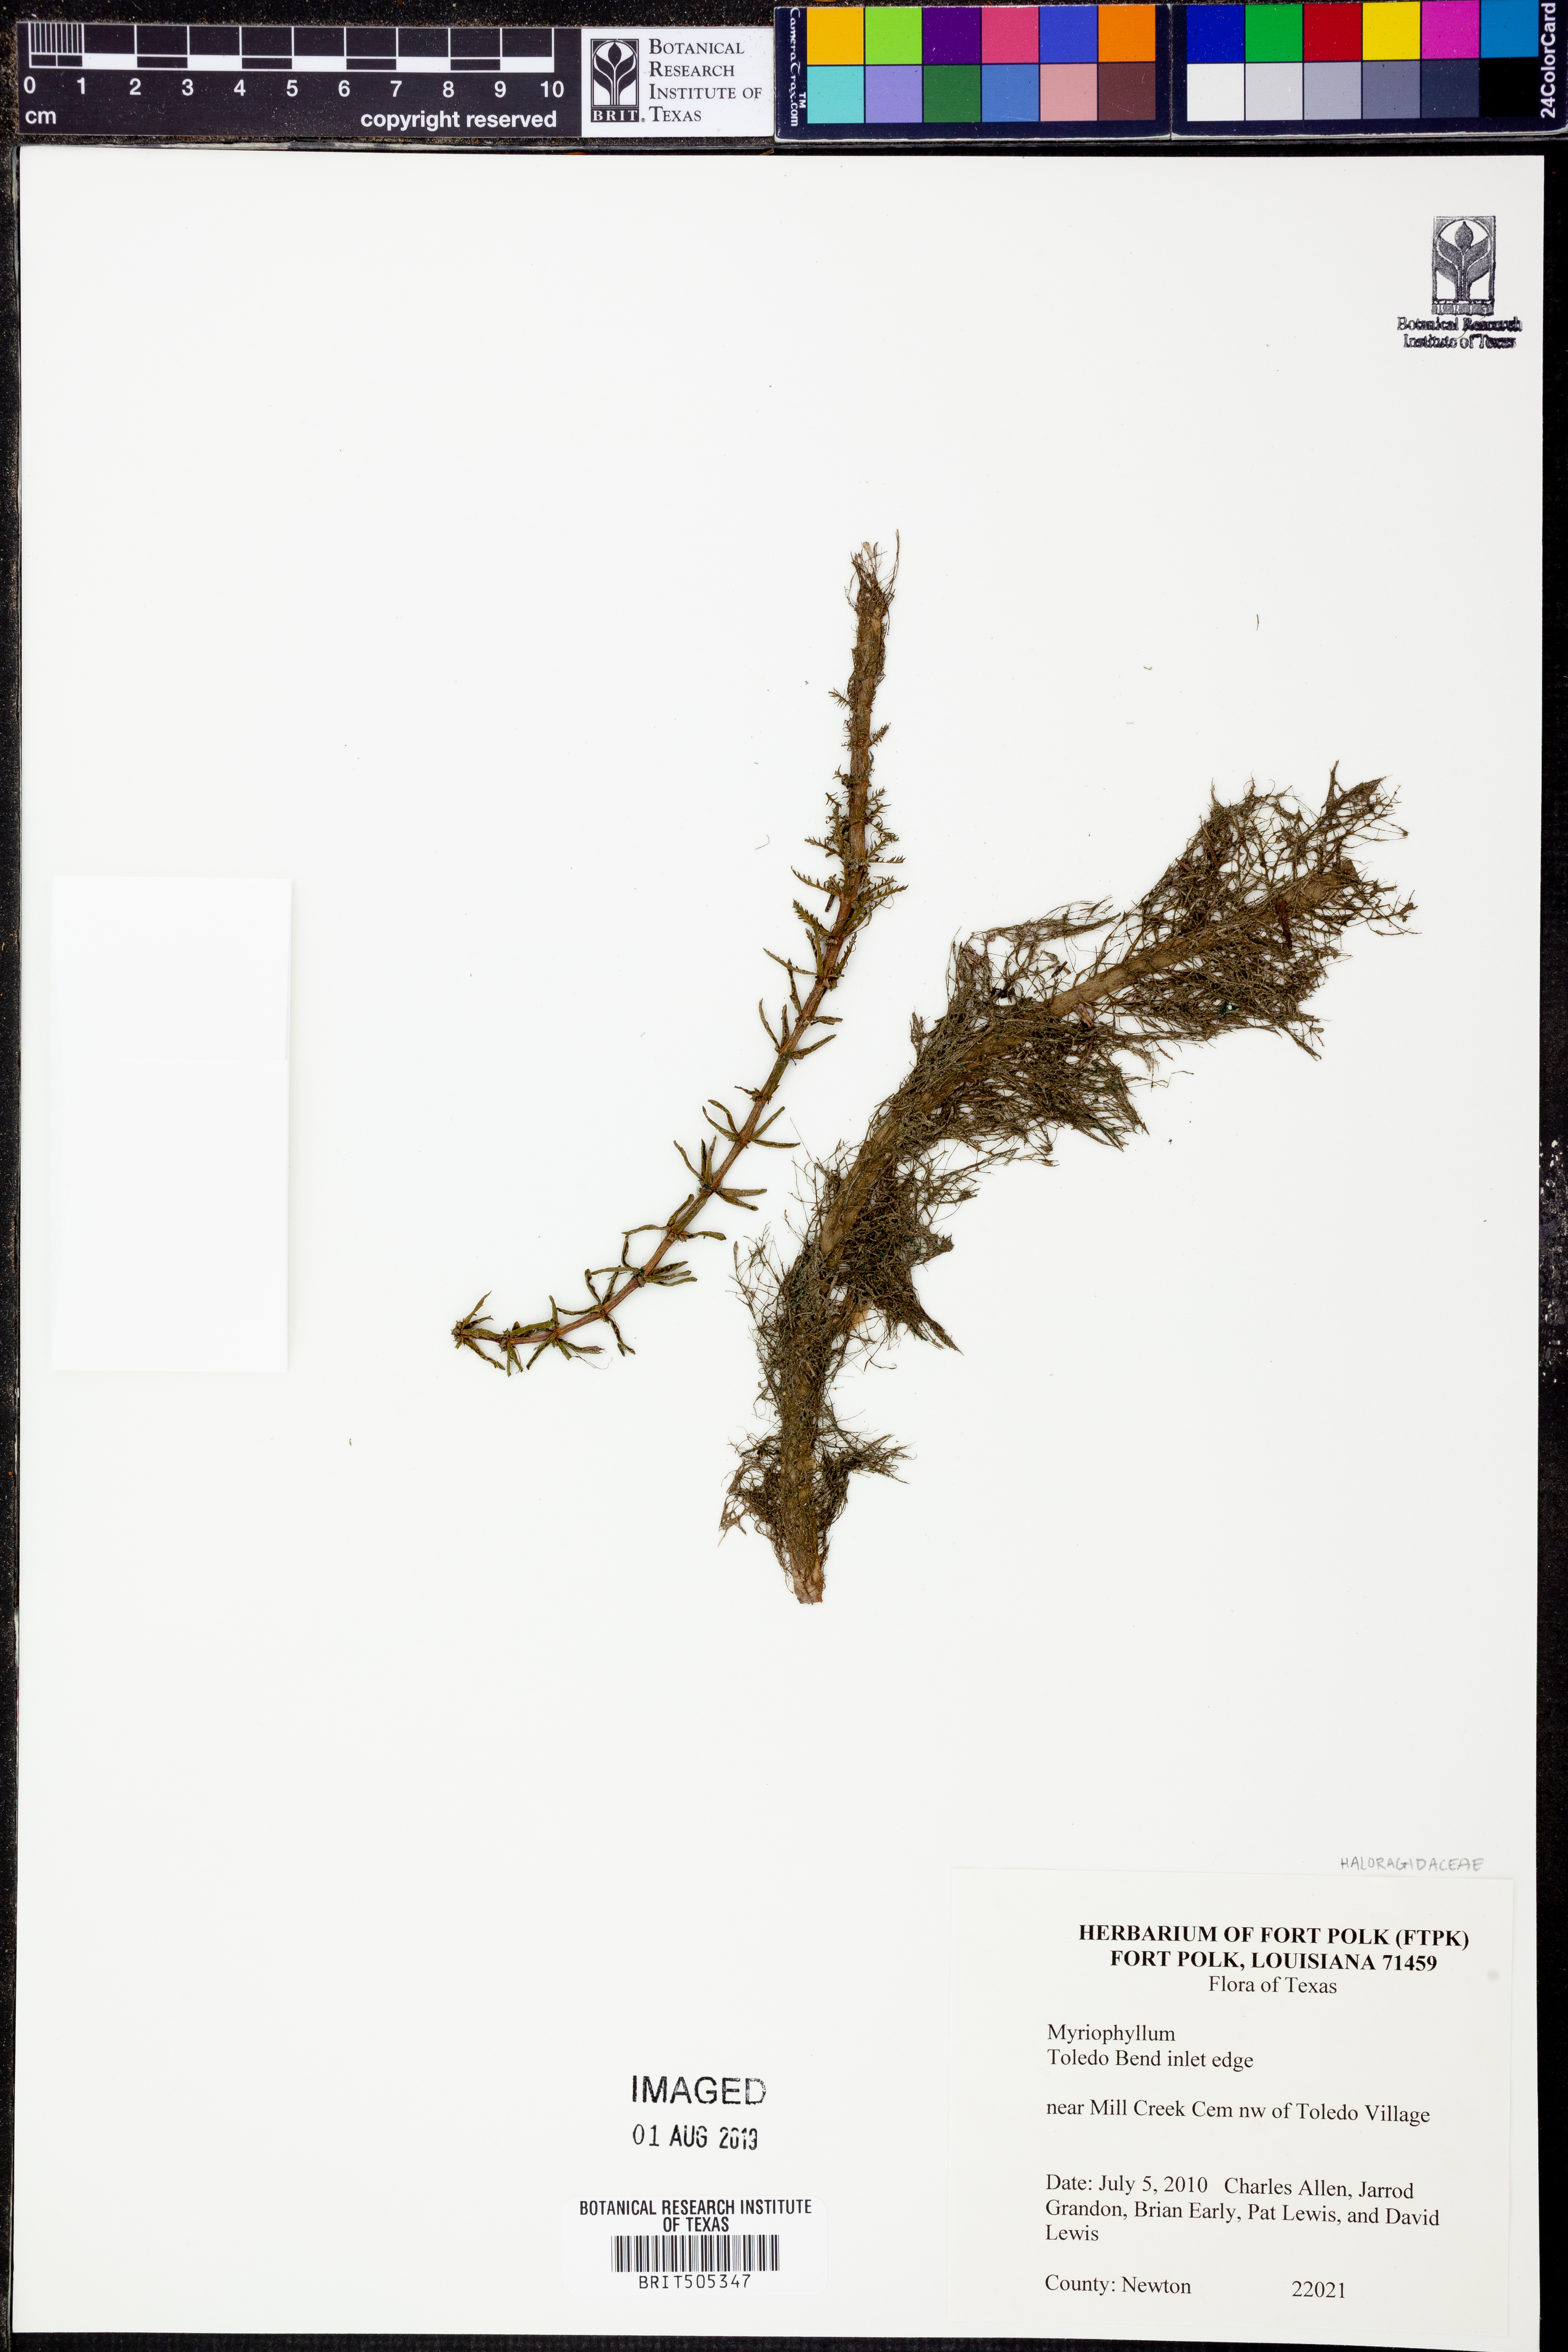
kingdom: Plantae
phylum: Tracheophyta
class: Magnoliopsida
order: Saxifragales
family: Haloragaceae
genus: Myriophyllum
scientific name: Myriophyllum
